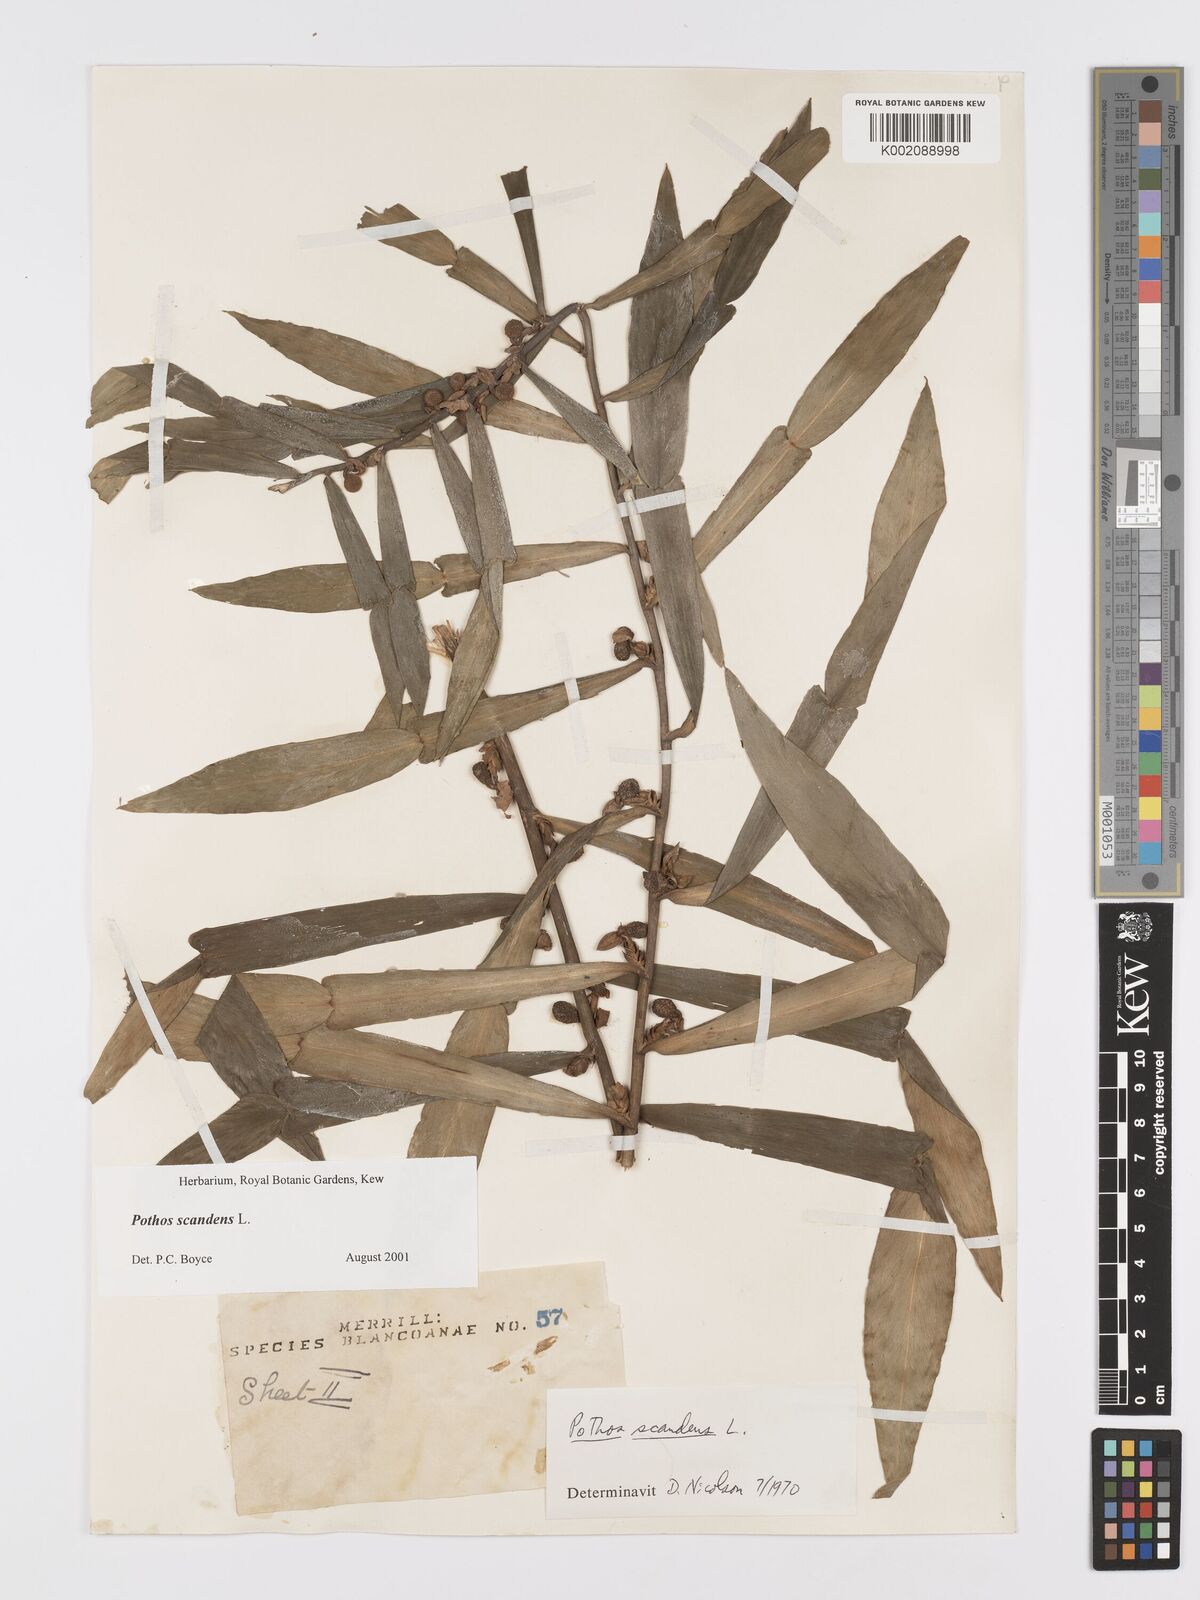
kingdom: Plantae
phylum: Tracheophyta
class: Liliopsida
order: Alismatales
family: Araceae
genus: Pothos
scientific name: Pothos scandens
